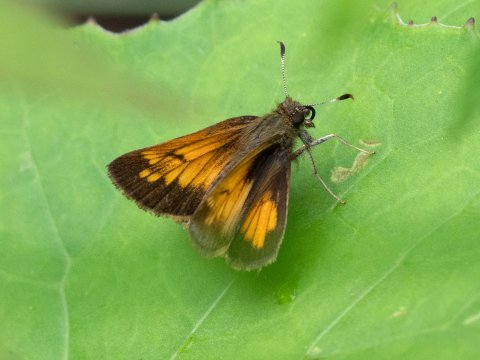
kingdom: Animalia
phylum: Arthropoda
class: Insecta
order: Lepidoptera
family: Hesperiidae
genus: Lon
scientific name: Lon hobomok
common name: Hobomok Skipper
